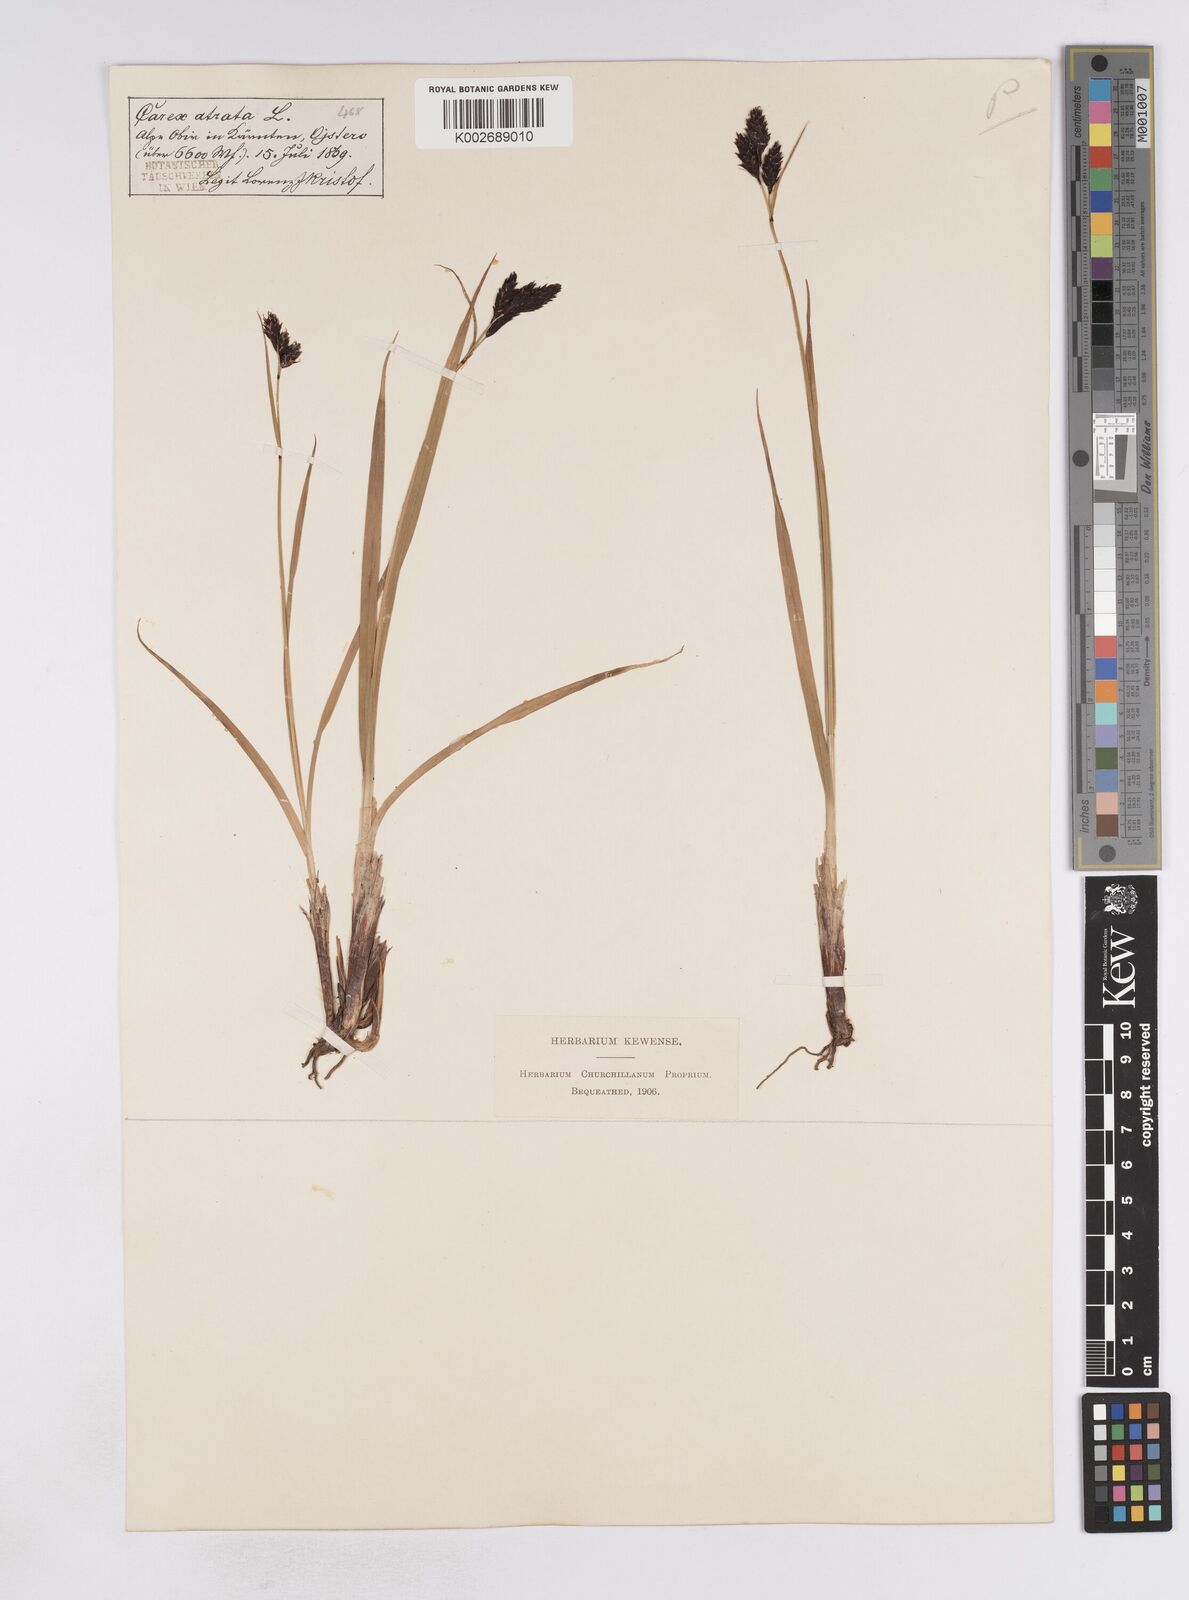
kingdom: Plantae
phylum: Tracheophyta
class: Liliopsida
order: Poales
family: Cyperaceae
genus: Carex
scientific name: Carex atrata
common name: Black alpine sedge
